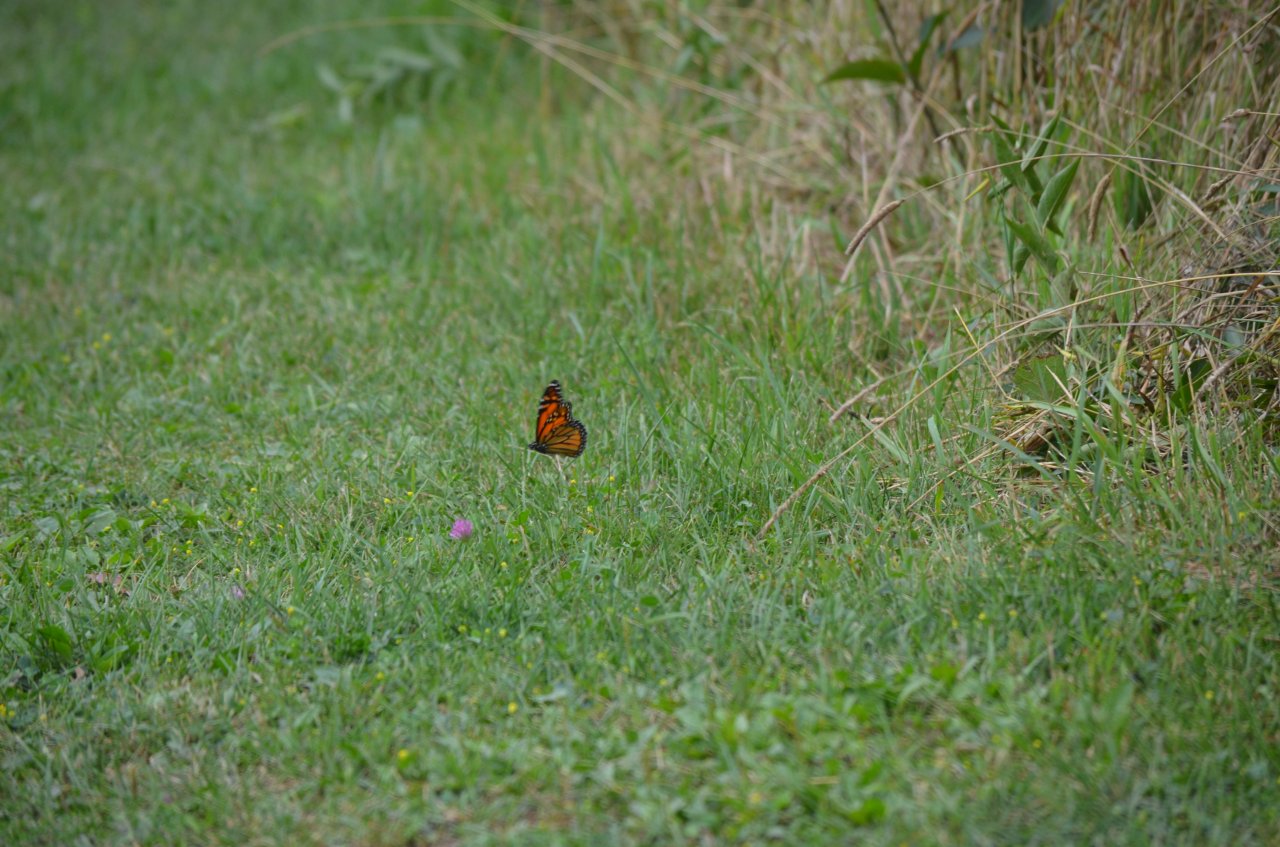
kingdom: Animalia
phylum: Arthropoda
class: Insecta
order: Lepidoptera
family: Nymphalidae
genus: Danaus
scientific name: Danaus plexippus
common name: Monarch
